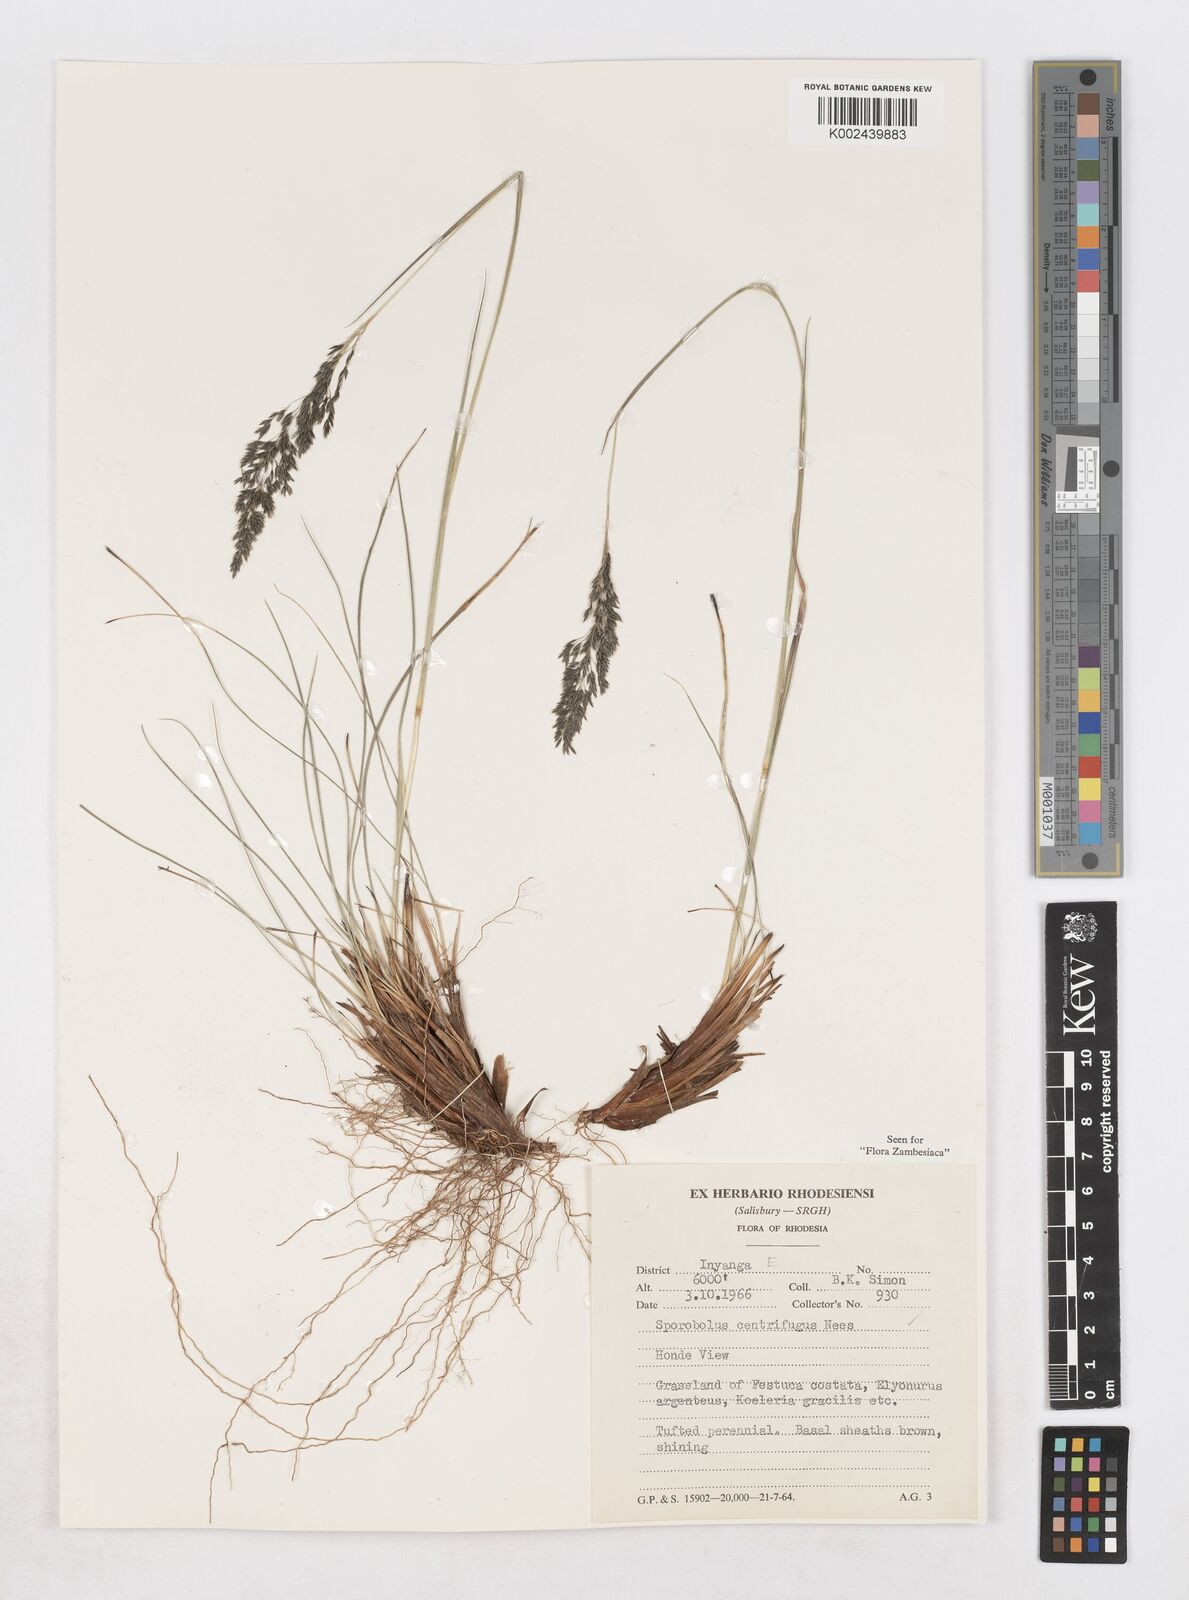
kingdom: Plantae
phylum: Tracheophyta
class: Liliopsida
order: Poales
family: Poaceae
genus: Sporobolus
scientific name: Sporobolus centrifugus
